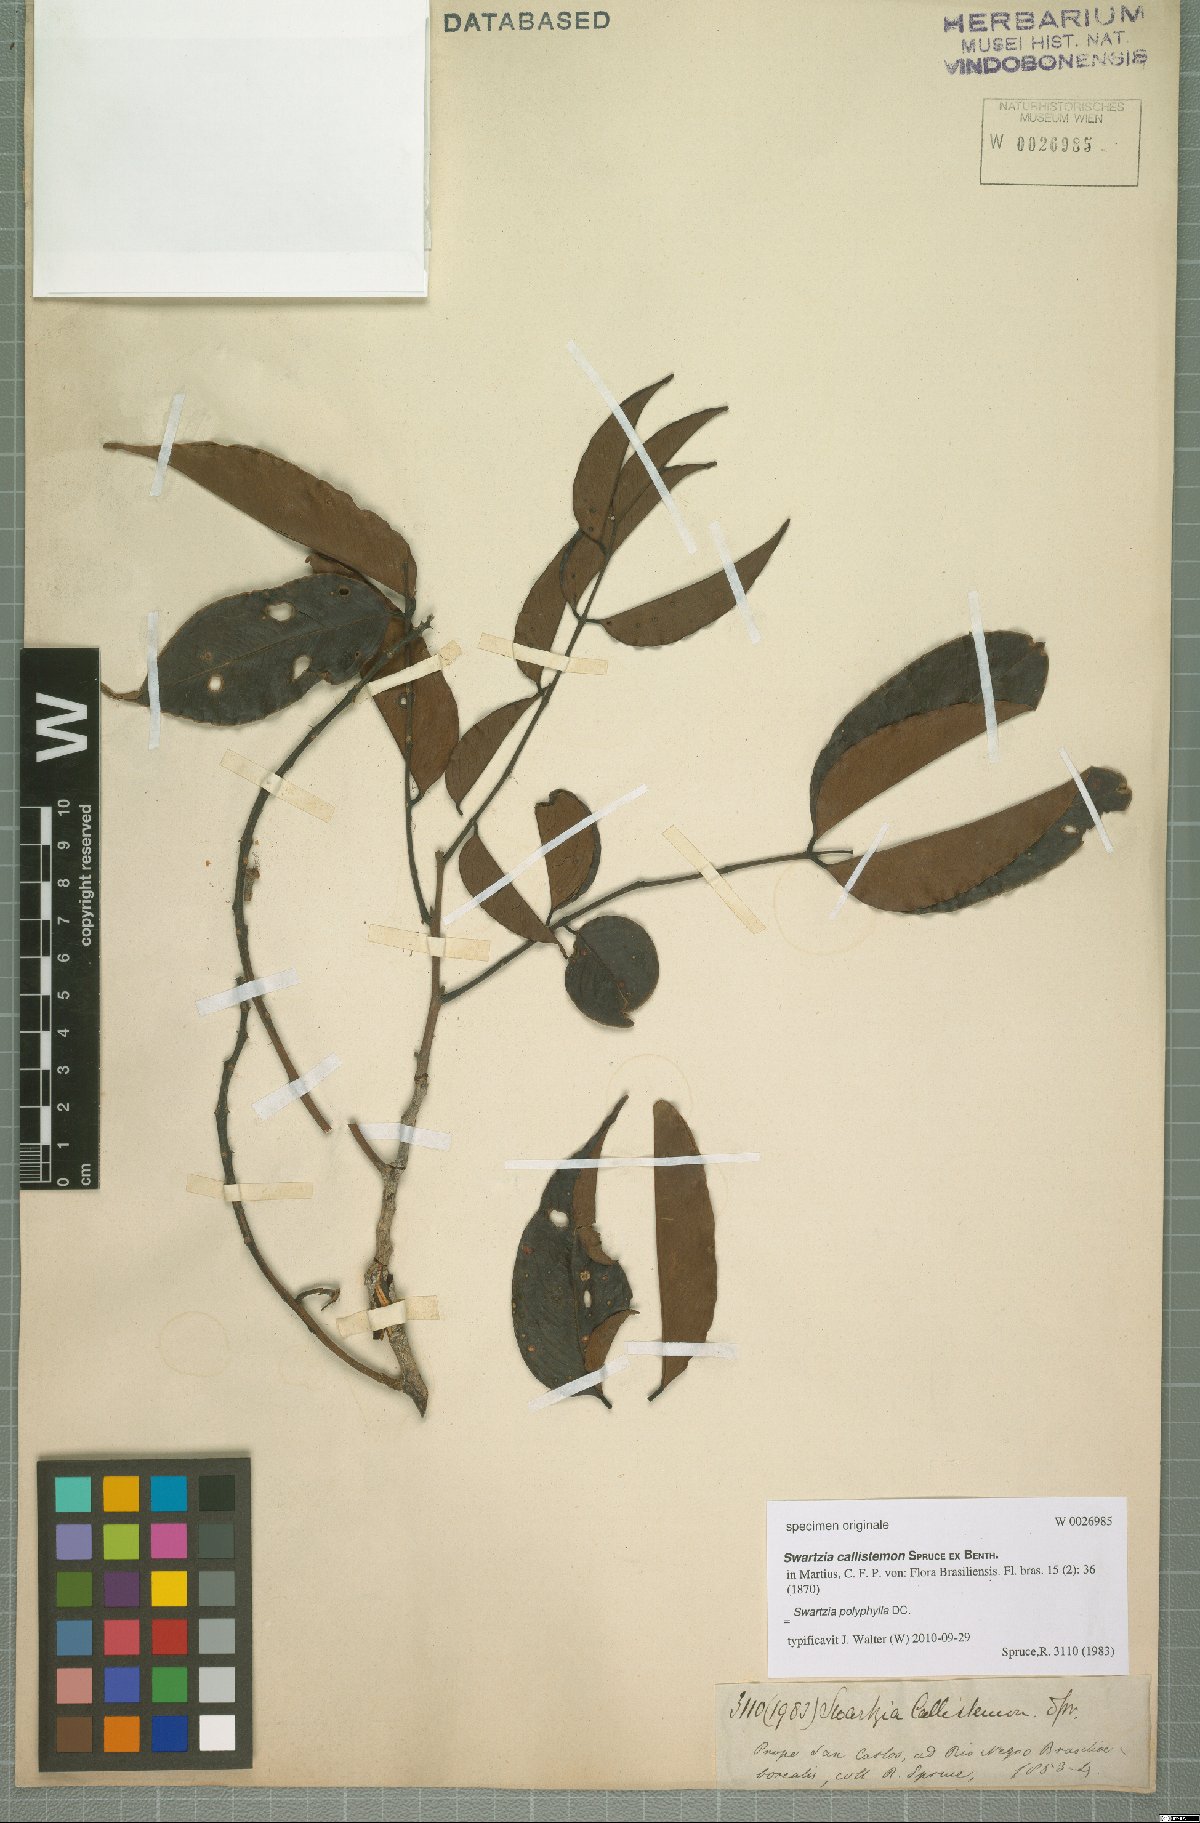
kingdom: Plantae
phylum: Tracheophyta
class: Magnoliopsida
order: Fabales
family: Fabaceae
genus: Swartzia
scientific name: Swartzia acuminata
